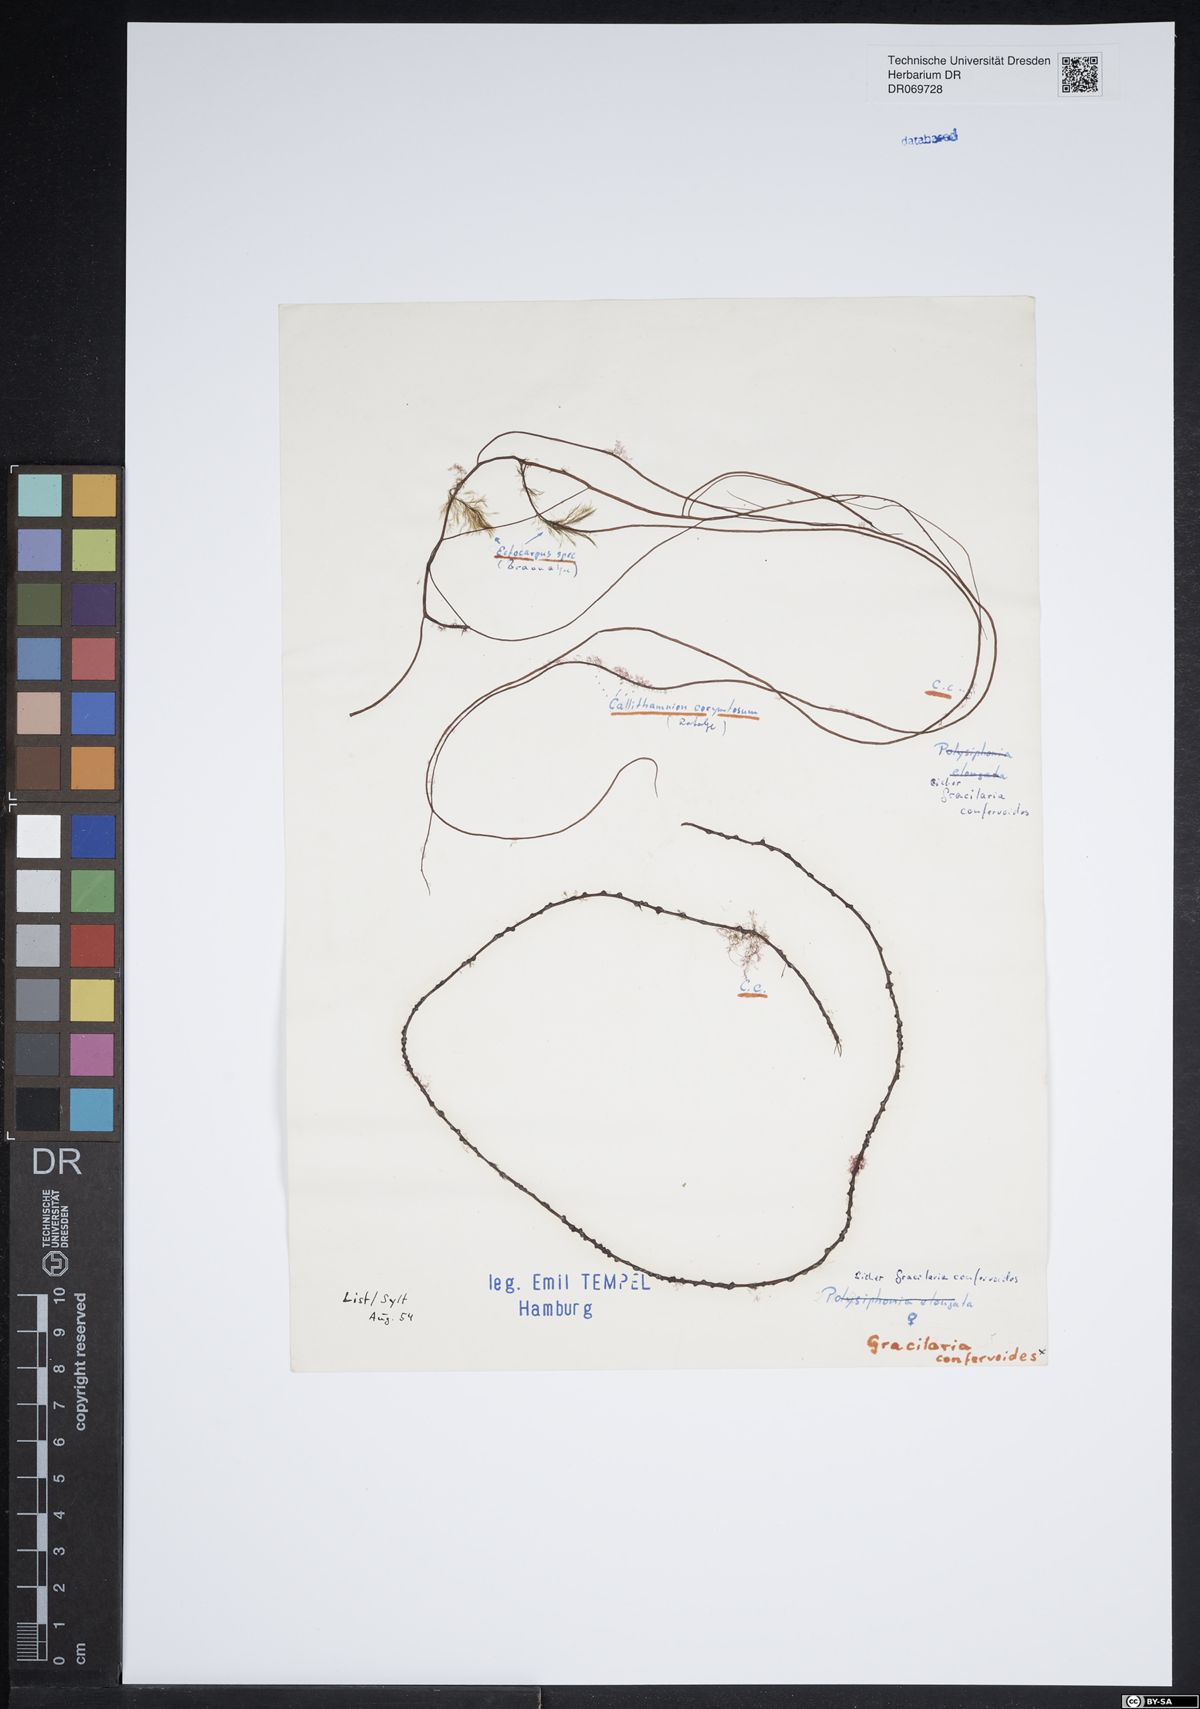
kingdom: Plantae
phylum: Rhodophyta
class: Florideophyceae
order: Gracilariales
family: Gracilariaceae
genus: Gracilaria
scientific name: Gracilaria
